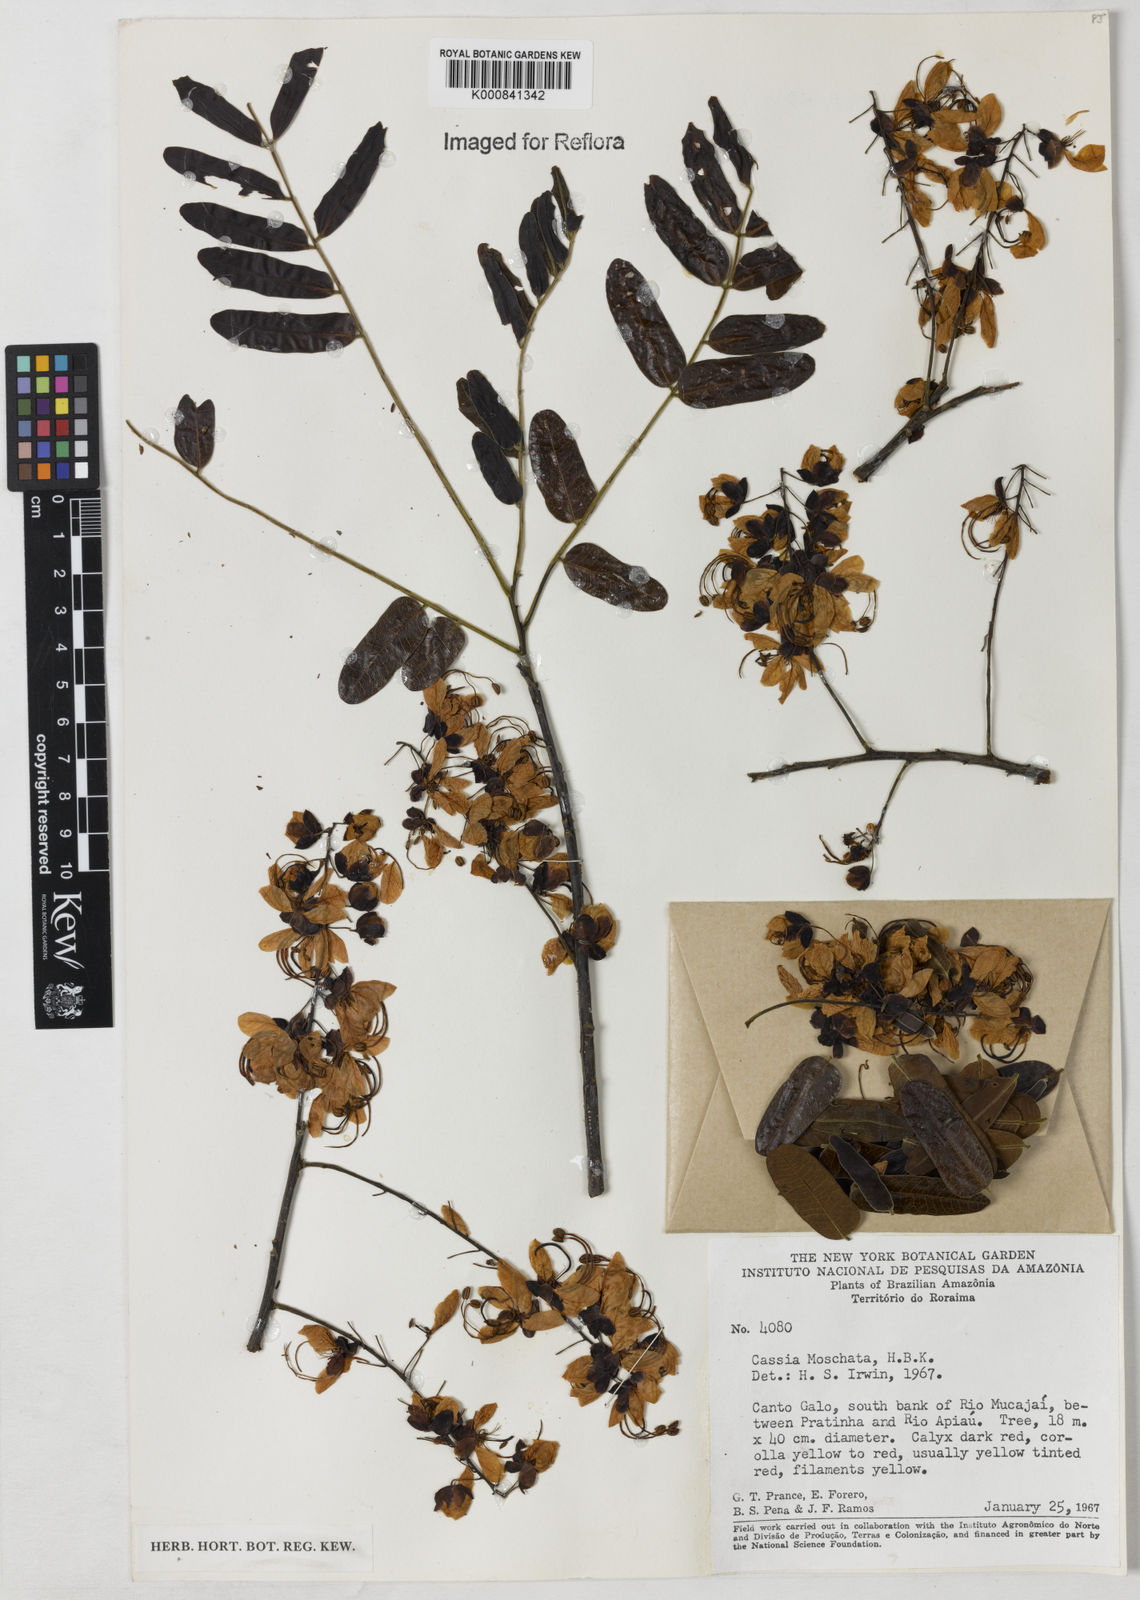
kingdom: Plantae
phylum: Tracheophyta
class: Magnoliopsida
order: Fabales
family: Fabaceae
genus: Cassia
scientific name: Cassia moschata
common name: Bronze shower tree
